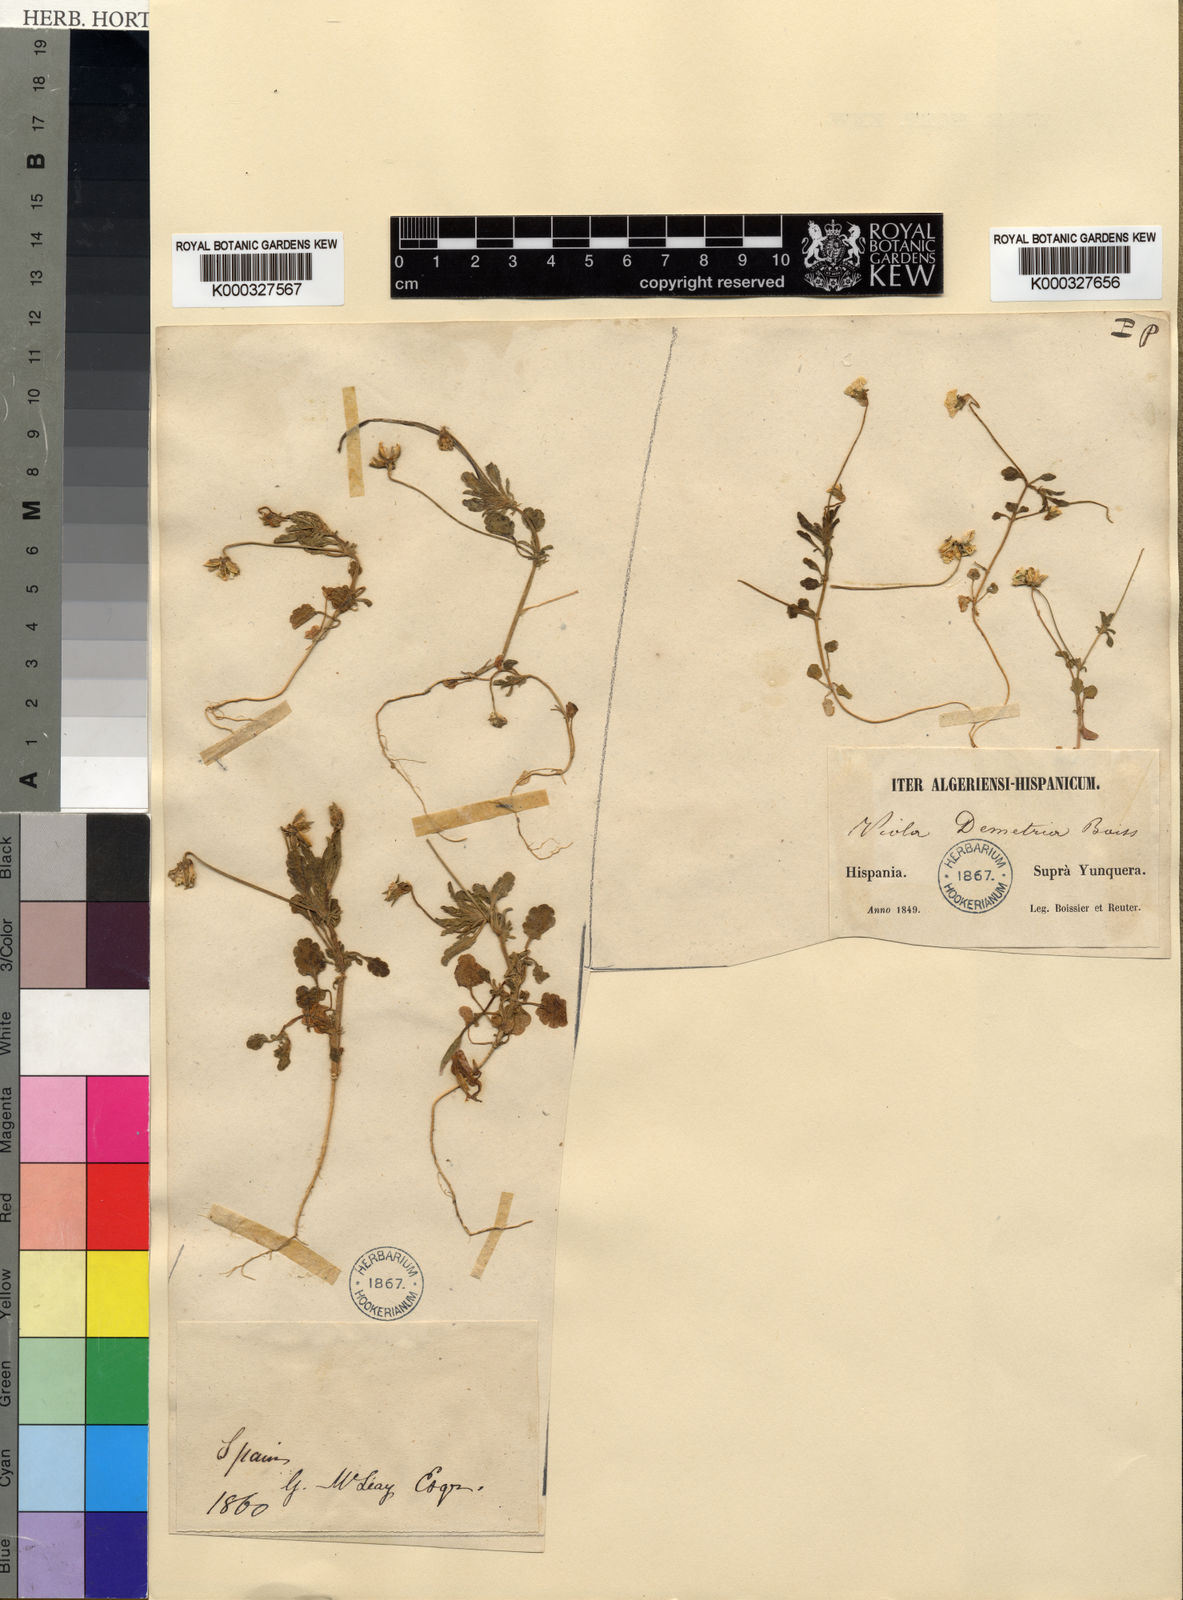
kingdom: Plantae
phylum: Tracheophyta
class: Magnoliopsida
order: Malpighiales
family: Violaceae
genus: Viola
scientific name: Viola demetria
